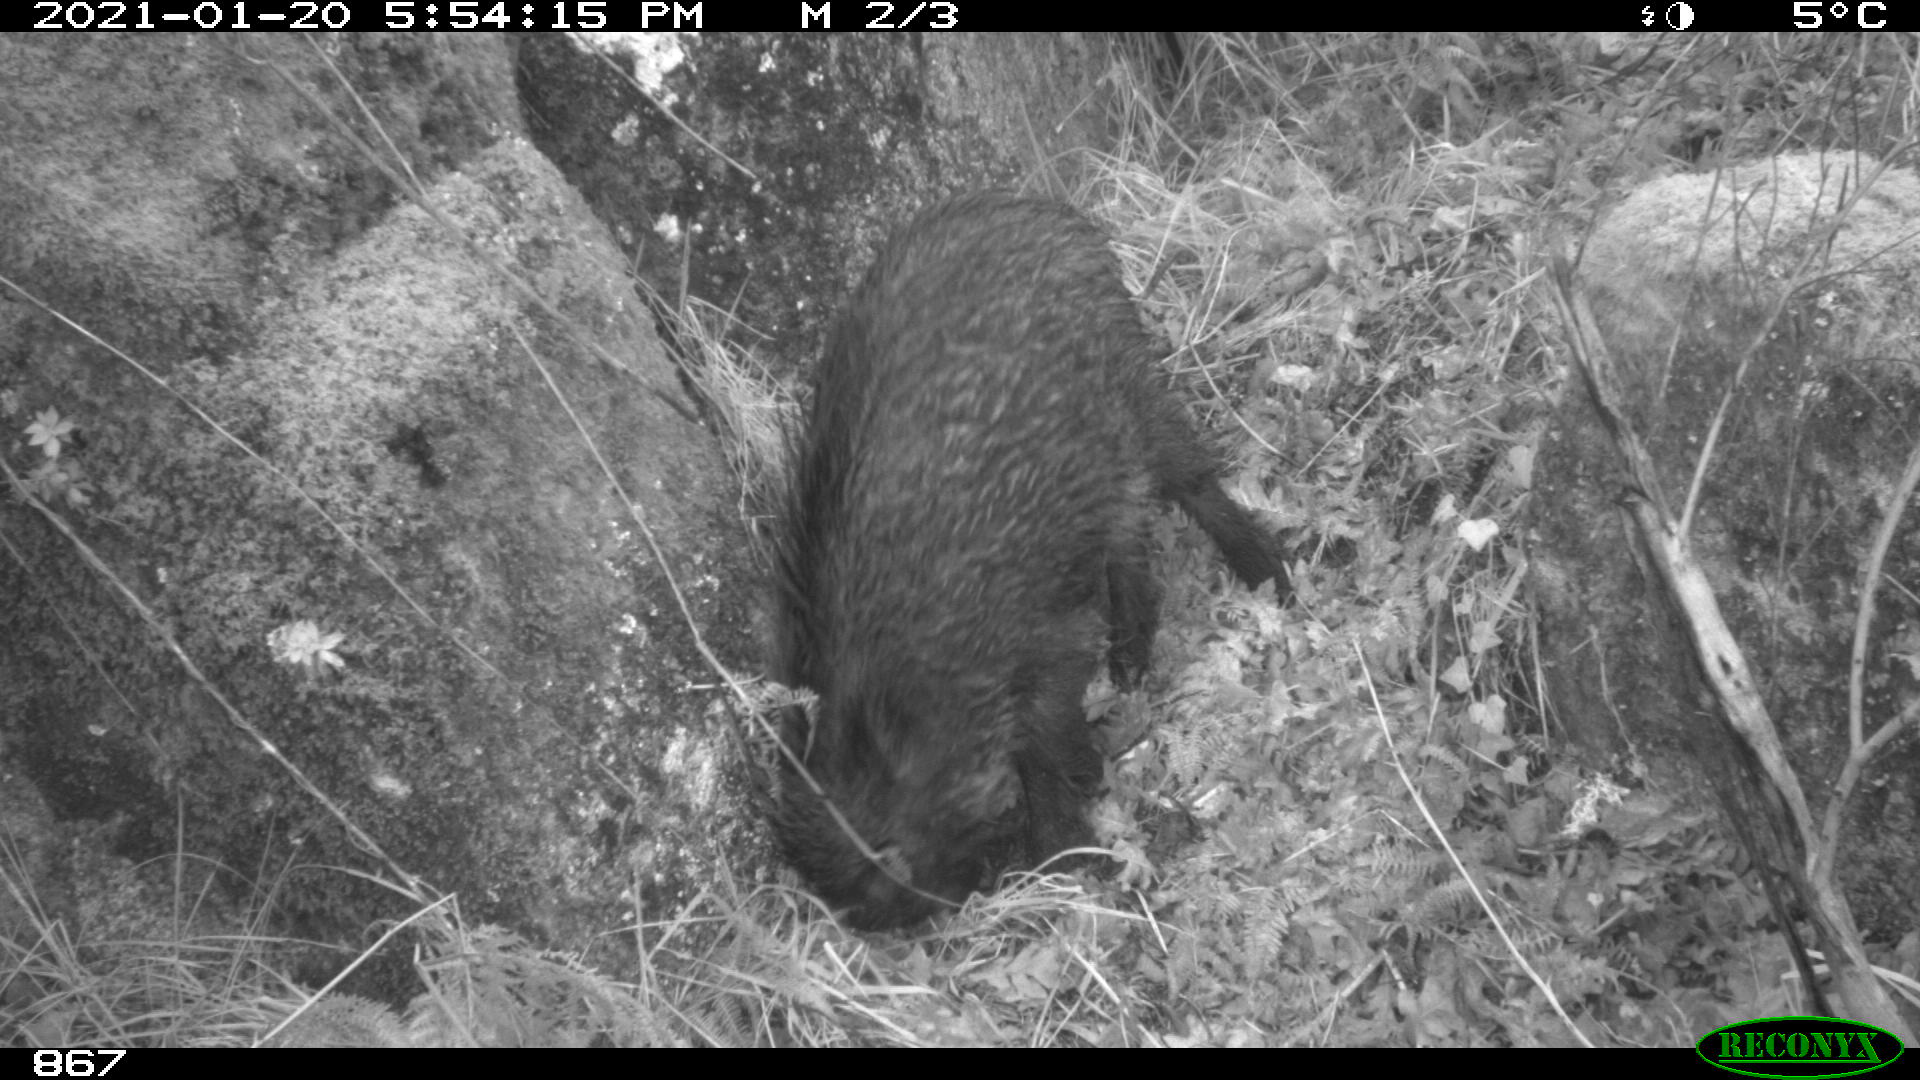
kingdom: Animalia
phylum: Chordata
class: Mammalia
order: Artiodactyla
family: Suidae
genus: Sus
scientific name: Sus scrofa
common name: Wild boar
